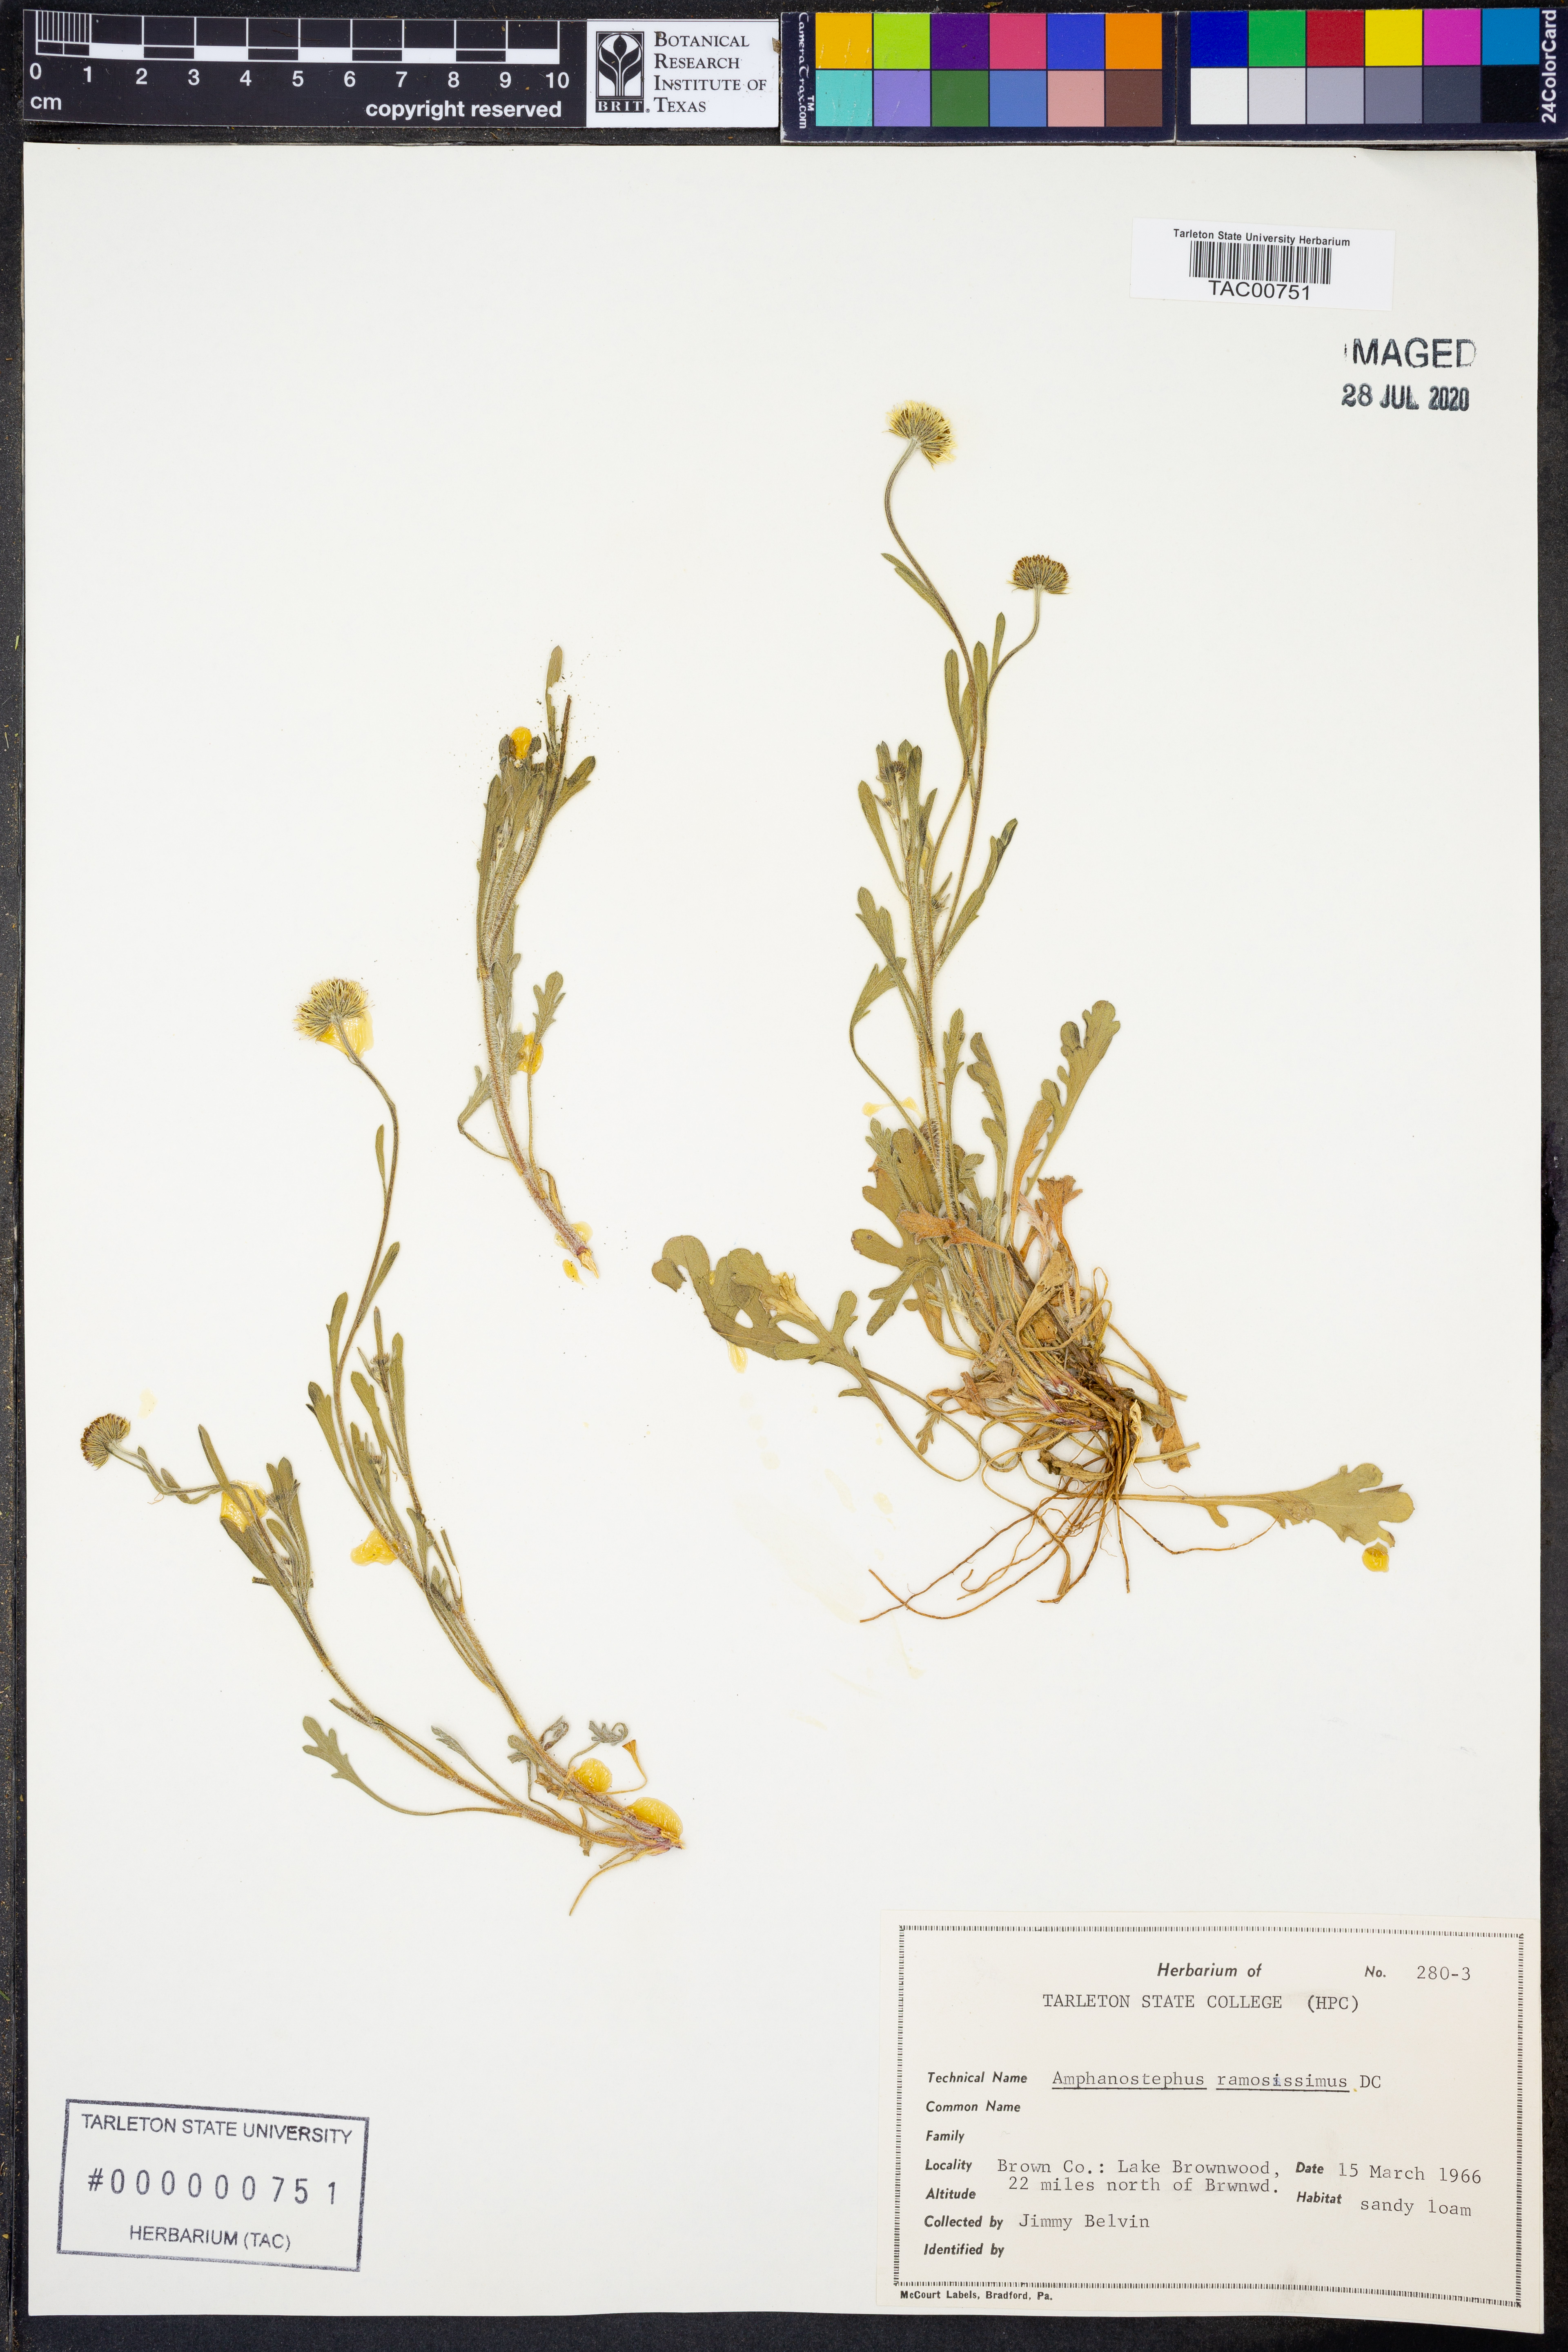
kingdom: Plantae
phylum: Tracheophyta
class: Magnoliopsida
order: Asterales
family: Asteraceae
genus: Aphanostephus
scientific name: Aphanostephus ramosissimus
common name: Plains lazy daisy
